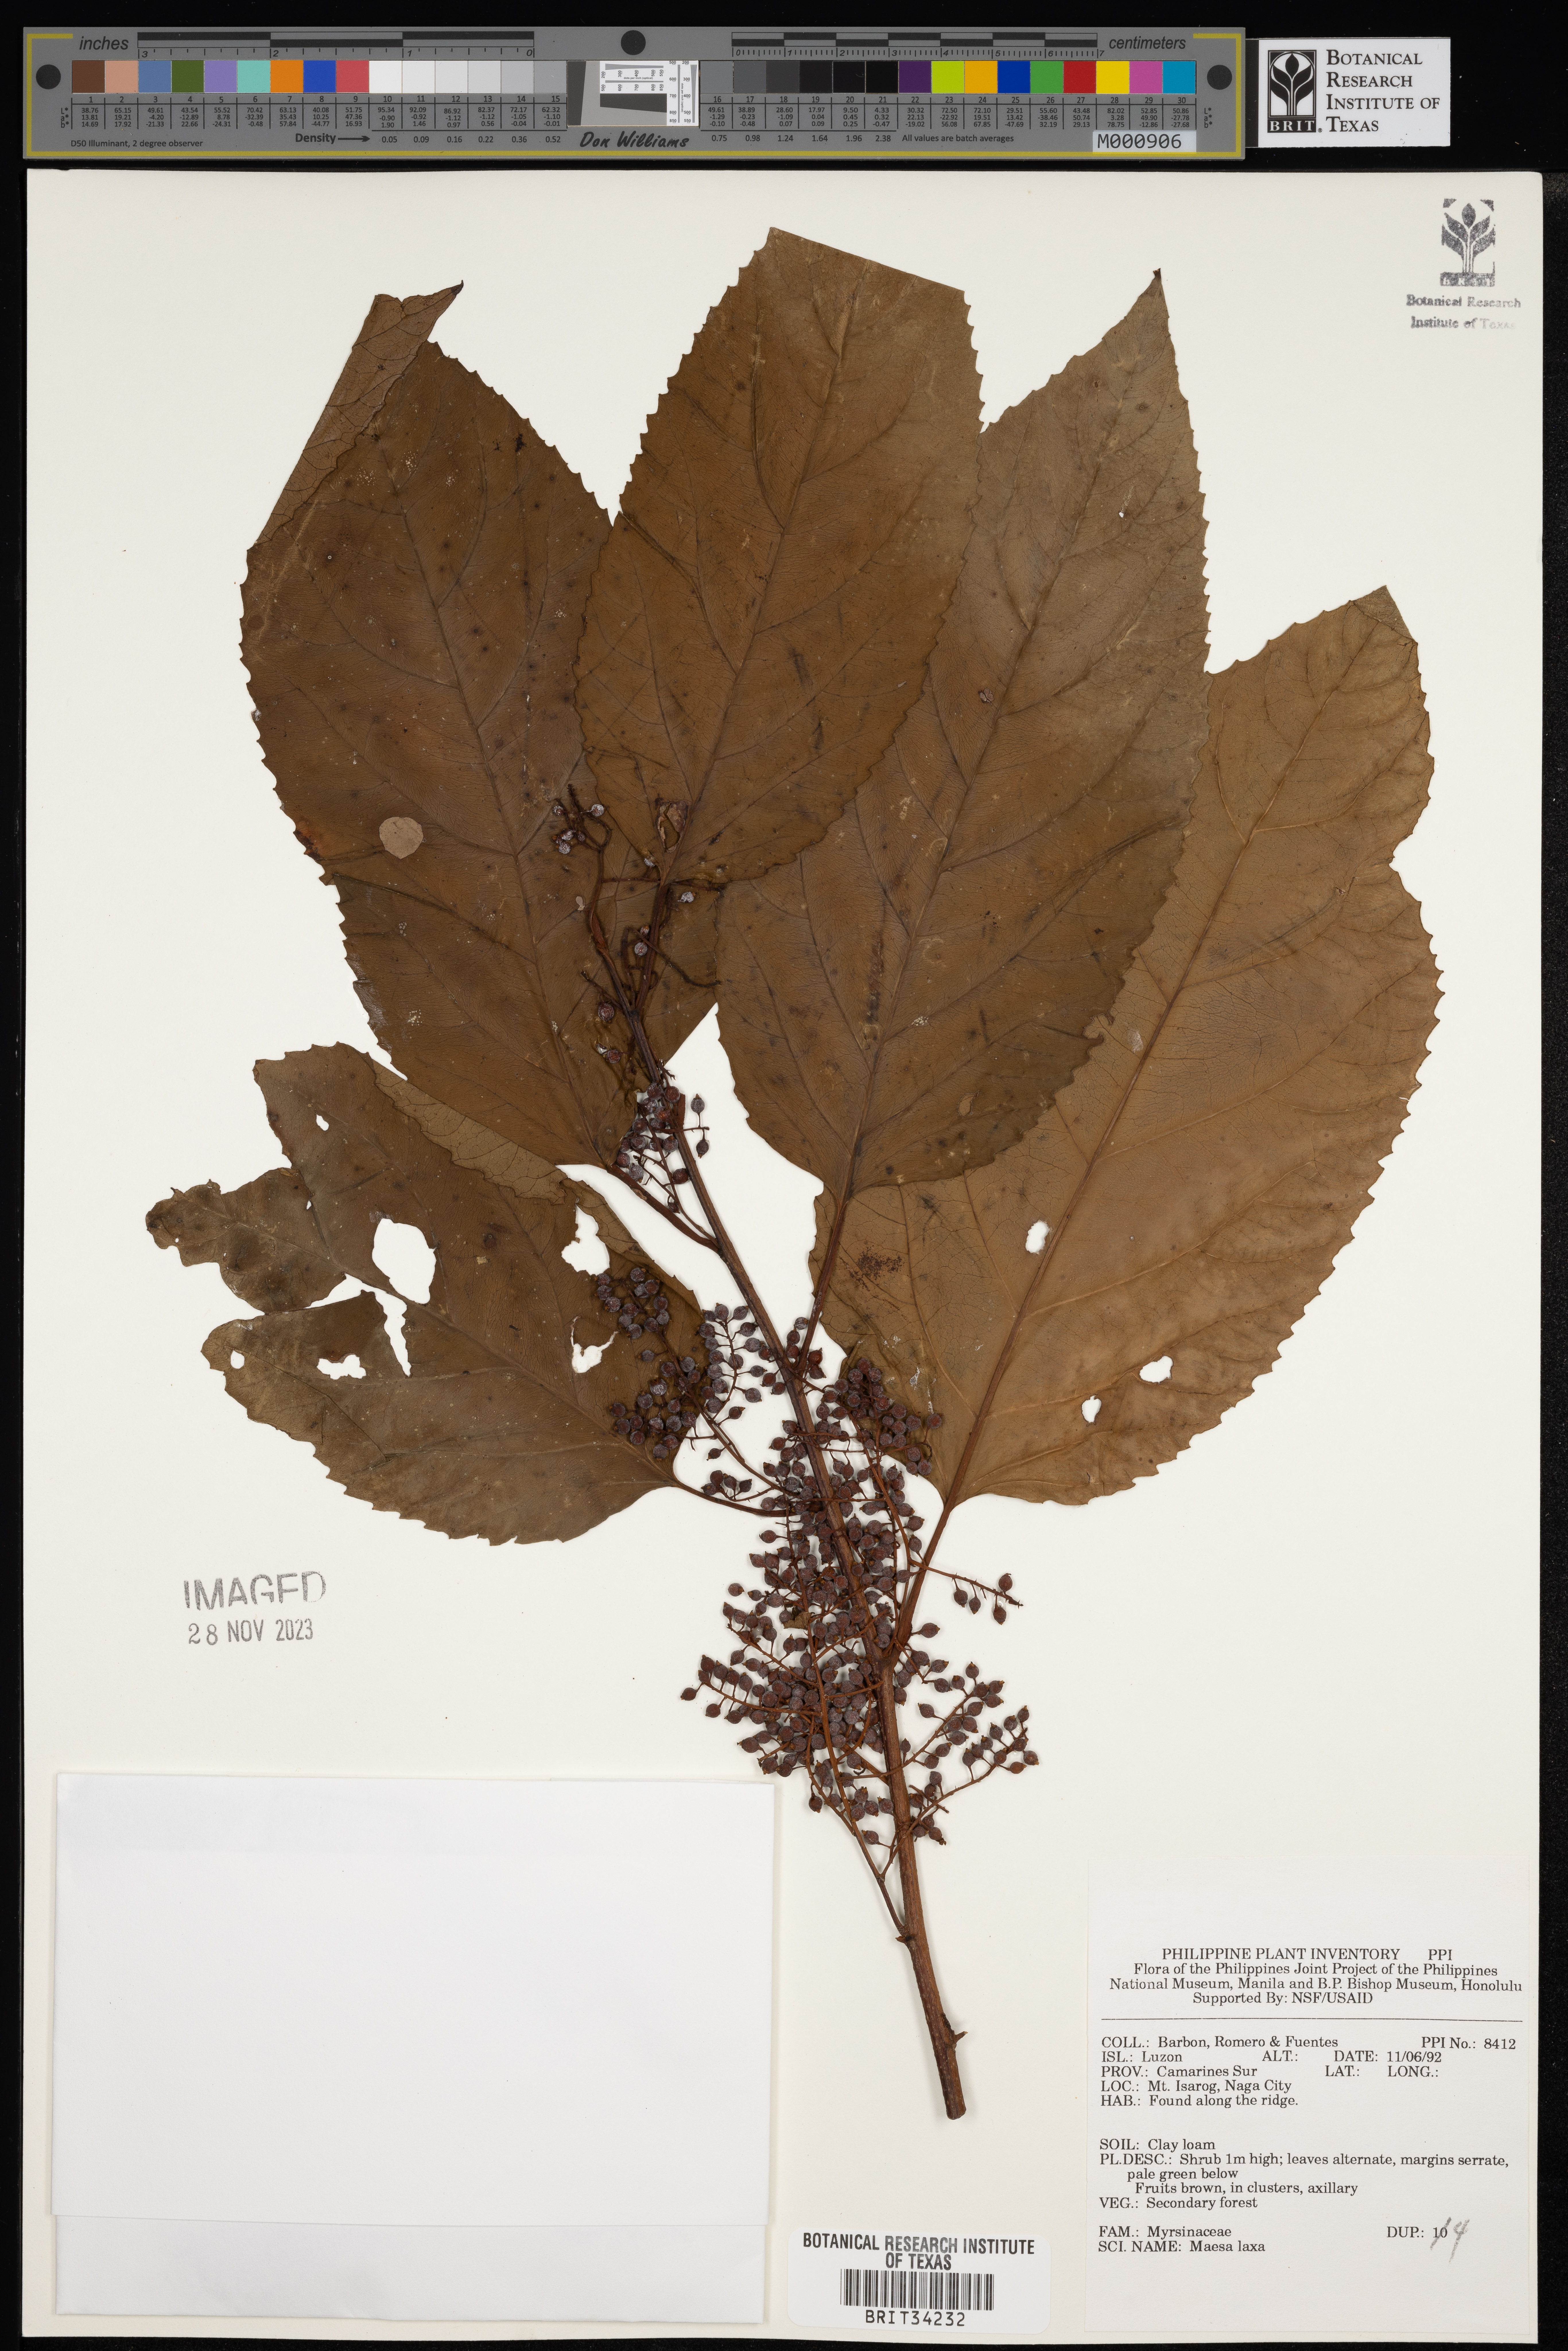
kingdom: Plantae
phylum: Tracheophyta
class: Magnoliopsida
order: Ericales
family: Primulaceae
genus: Maesa
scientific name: Maesa indica
